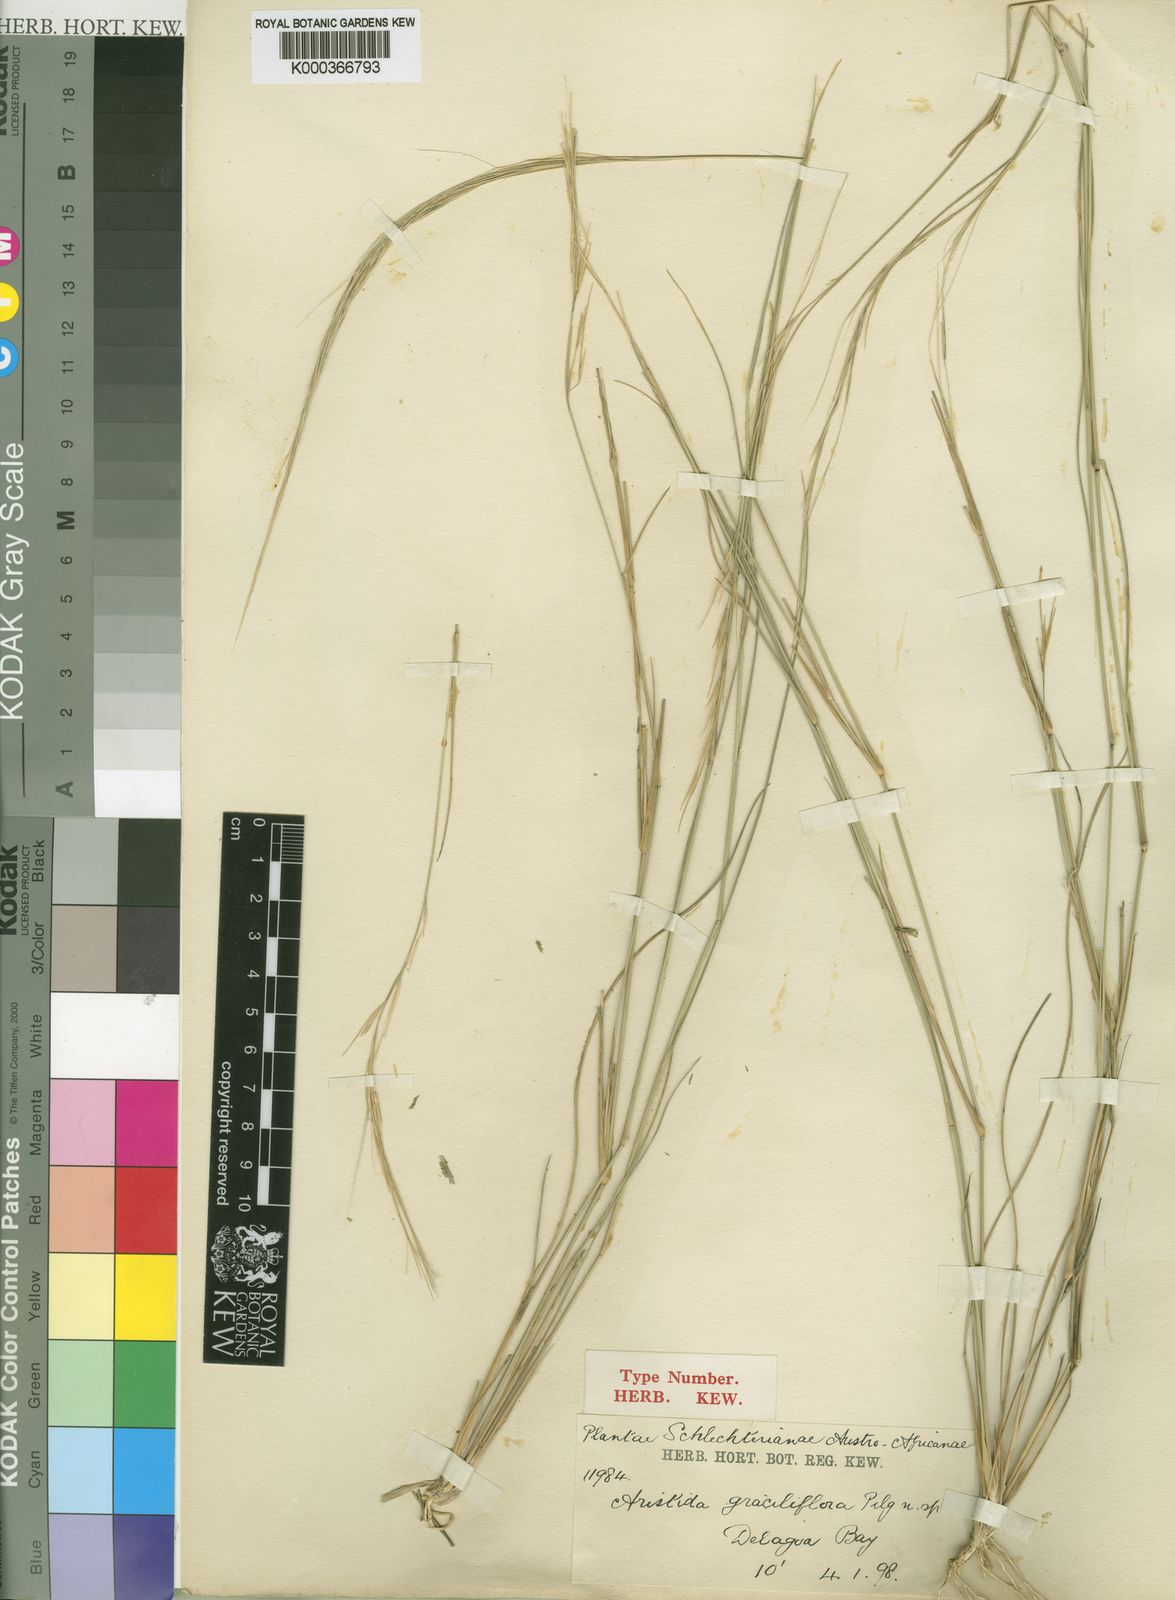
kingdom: Plantae
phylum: Tracheophyta
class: Liliopsida
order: Poales
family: Poaceae
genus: Aristida
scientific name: Aristida
